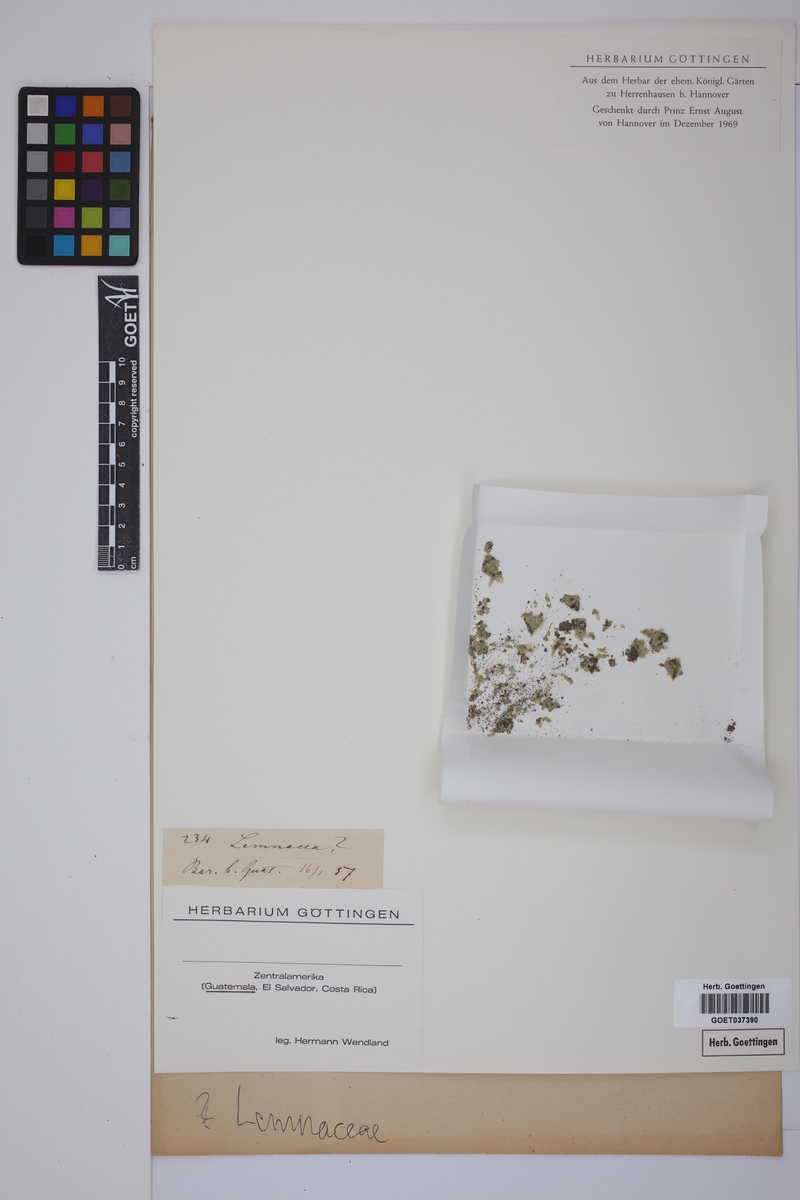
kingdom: Plantae
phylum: Tracheophyta
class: Liliopsida
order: Alismatales
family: Lemnaceae
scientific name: Lemnaceae
